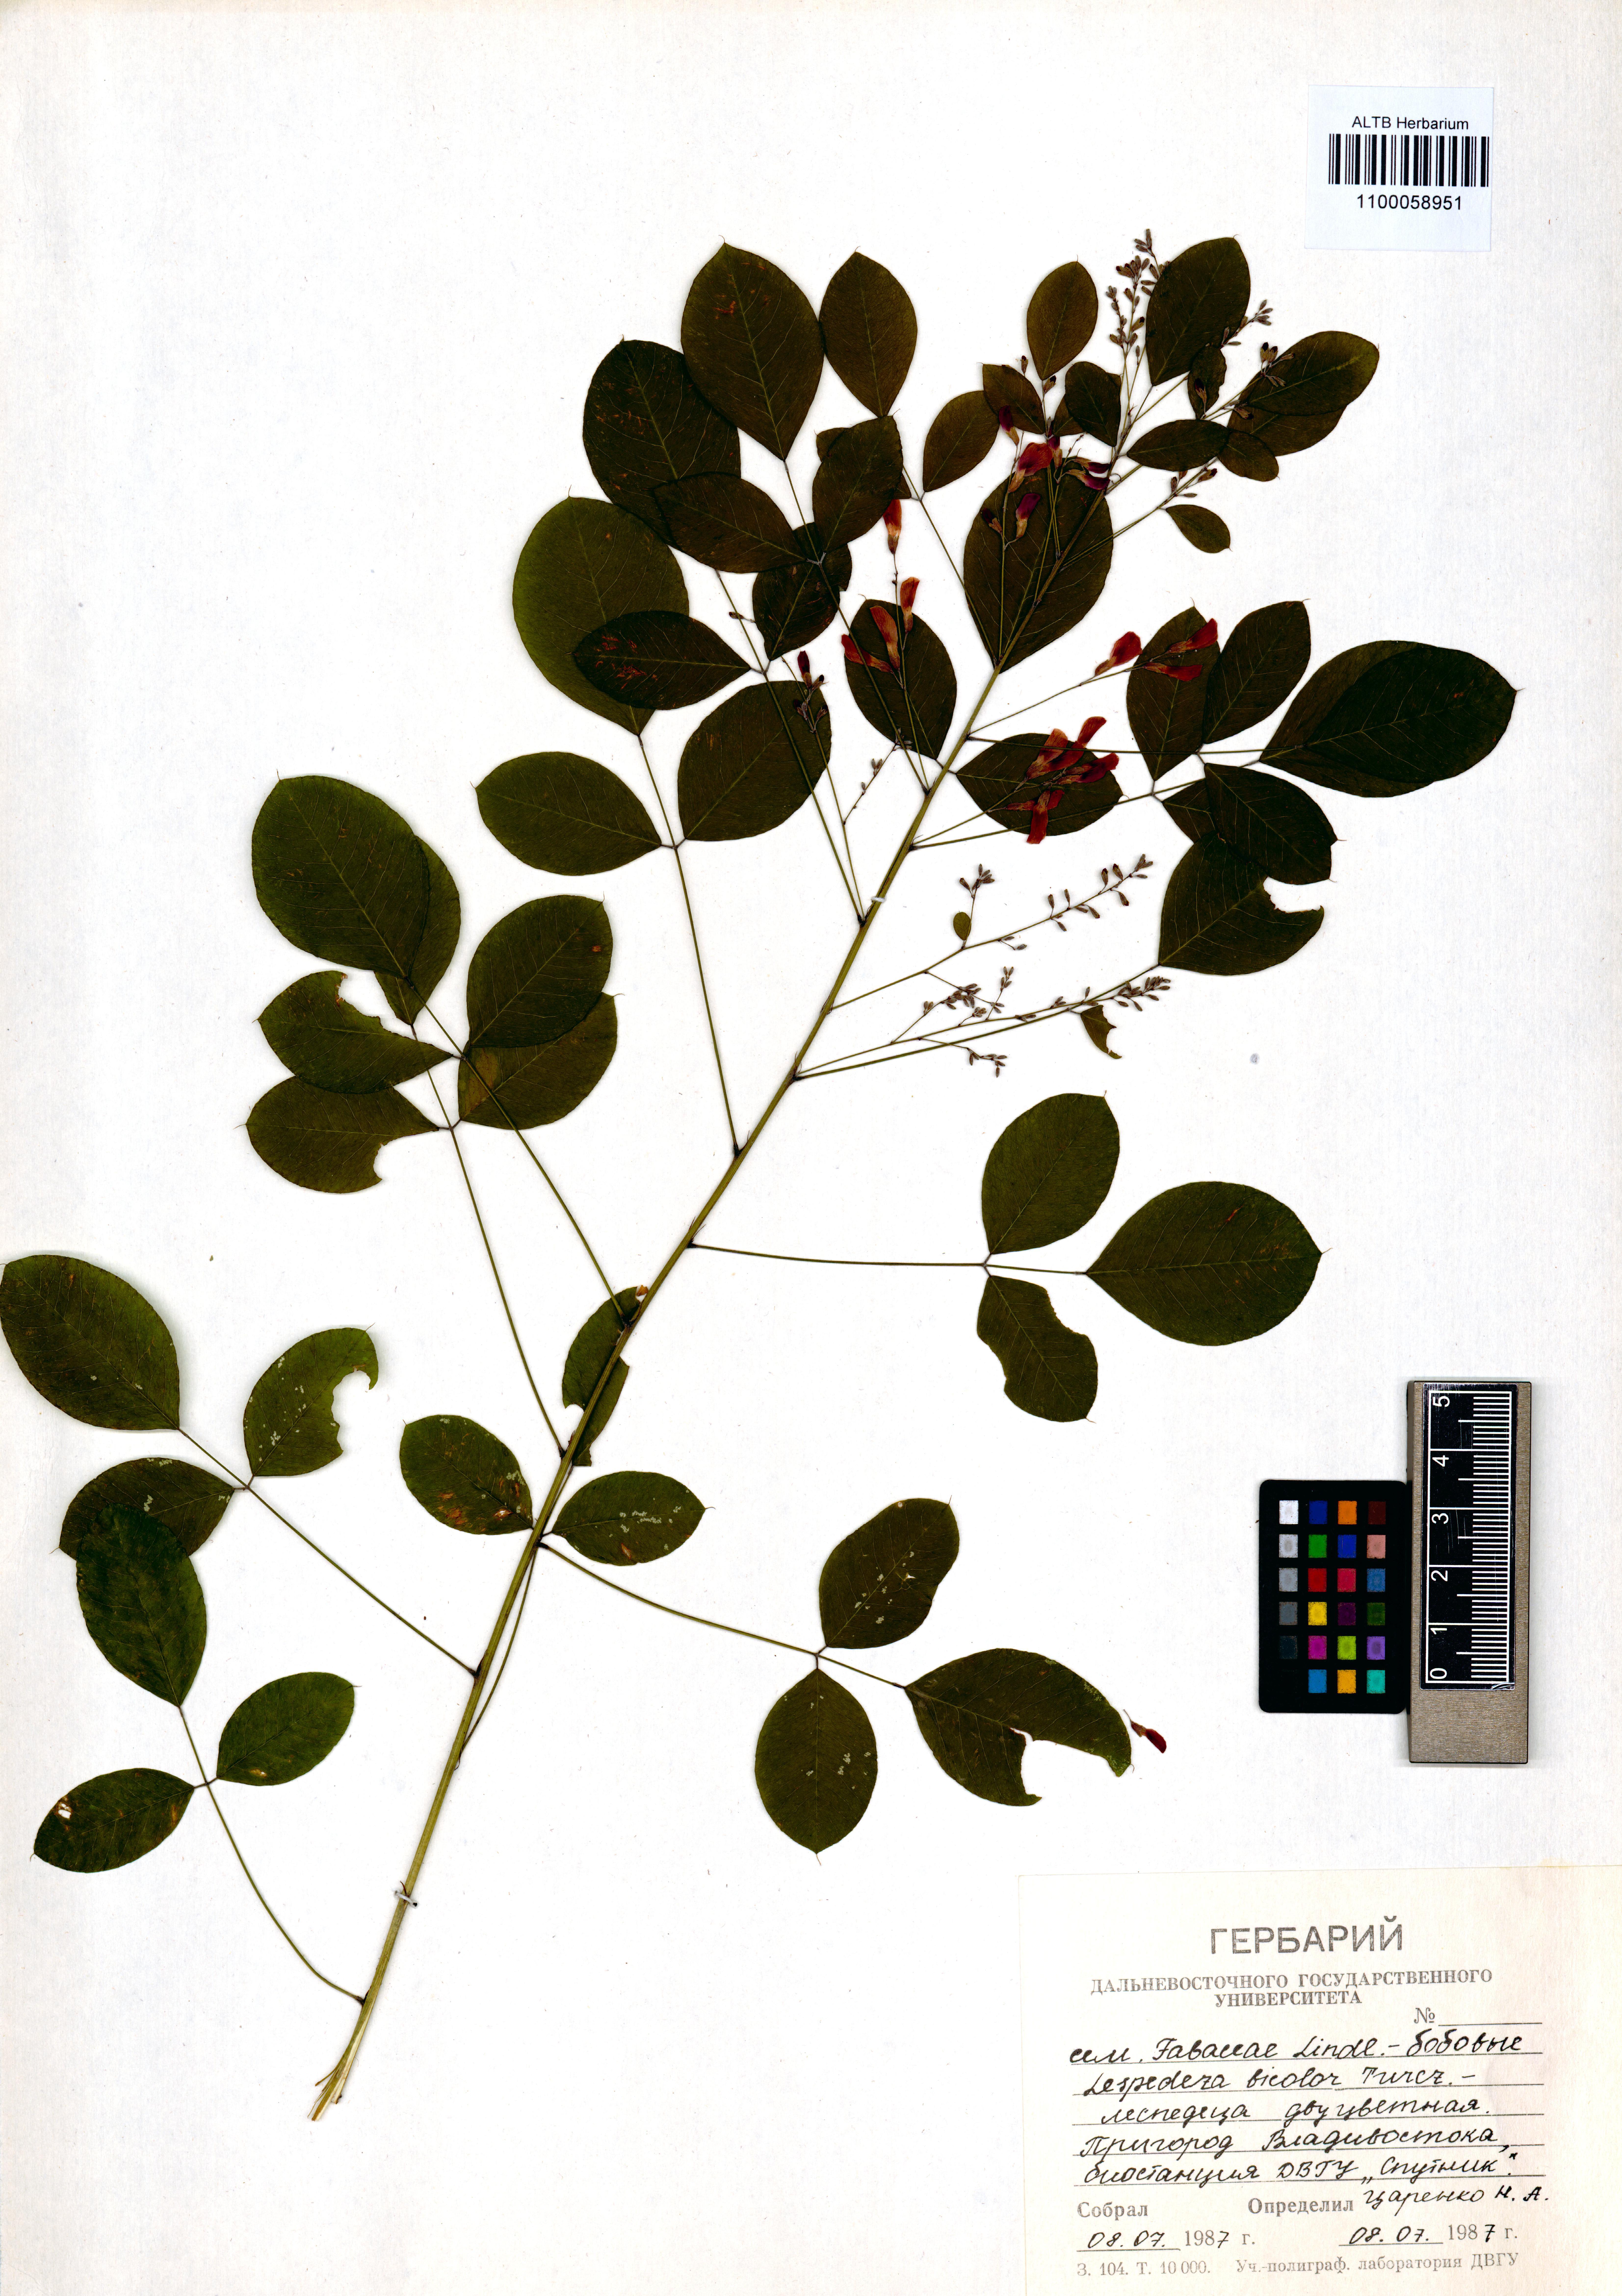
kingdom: Plantae
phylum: Tracheophyta
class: Magnoliopsida
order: Fabales
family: Fabaceae
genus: Lespedeza
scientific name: Lespedeza bicolor
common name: Shrub lespedeza
